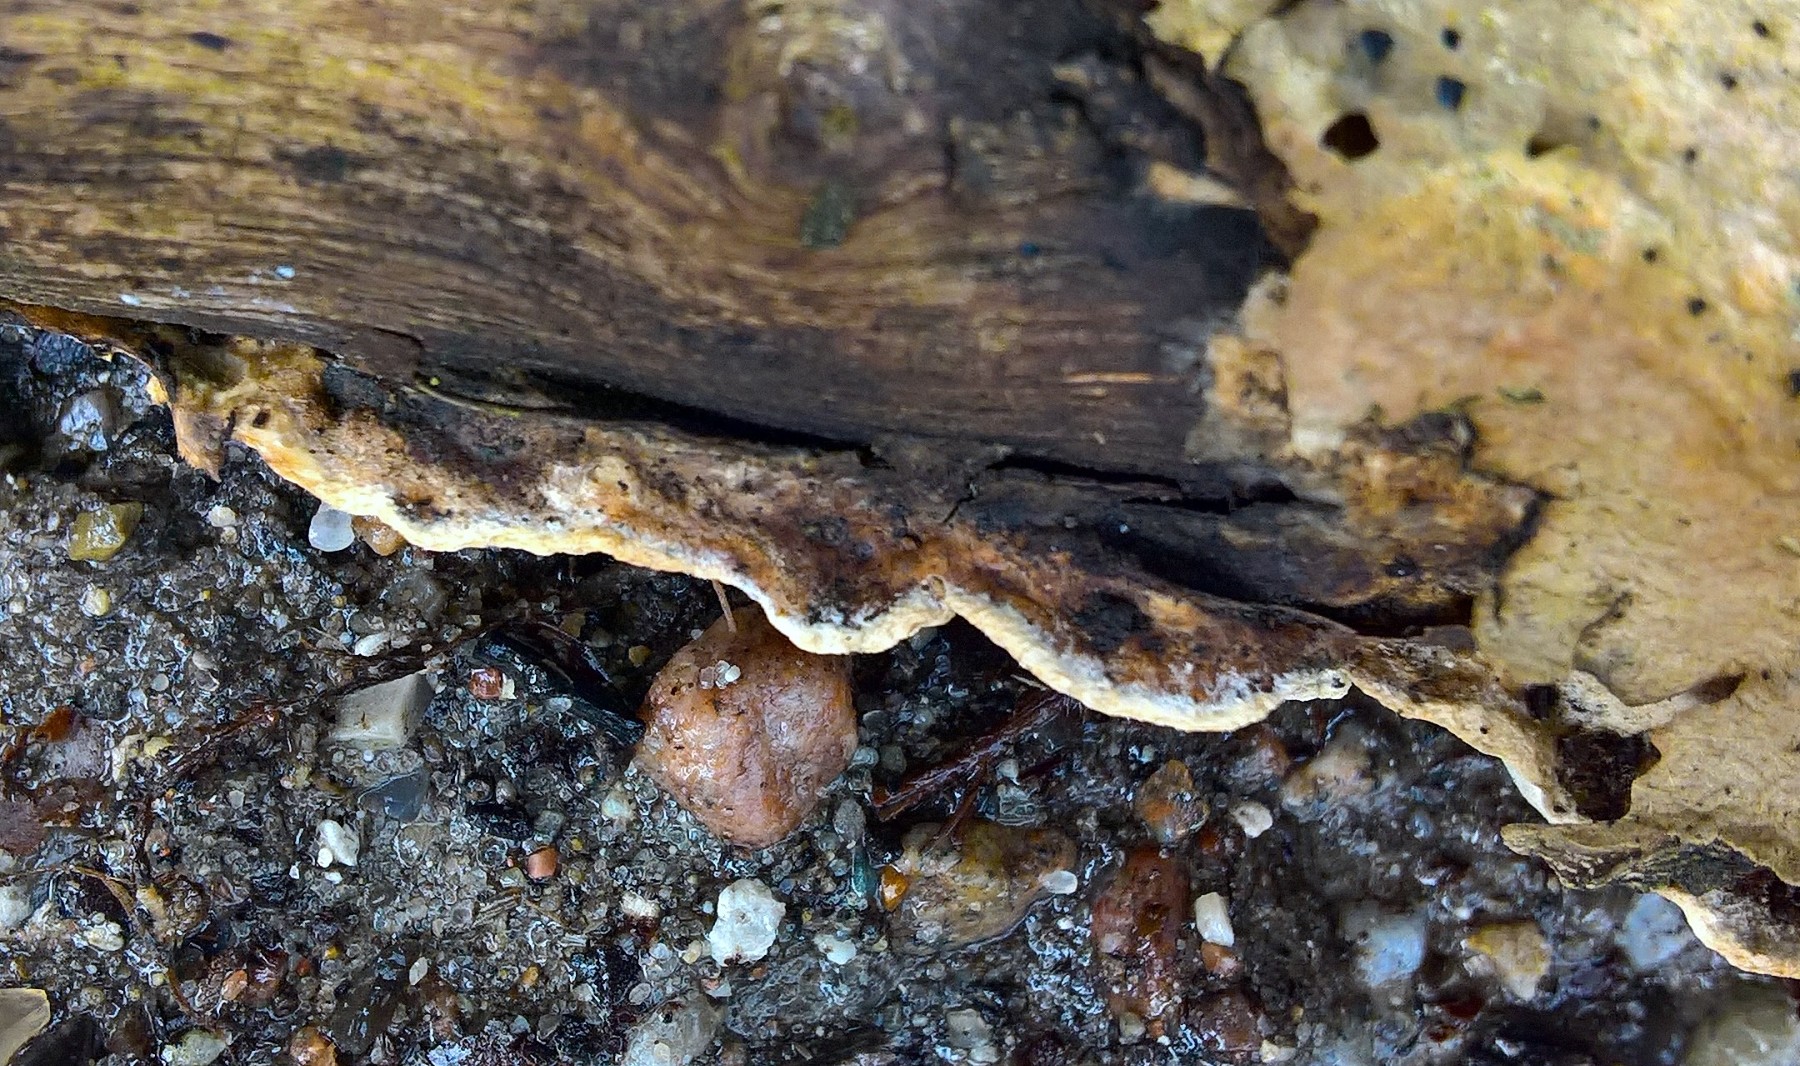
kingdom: Fungi
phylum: Basidiomycota
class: Agaricomycetes
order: Polyporales
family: Incrustoporiaceae
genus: Skeletocutis
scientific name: Skeletocutis nemoralis
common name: stor krystalporesvamp
